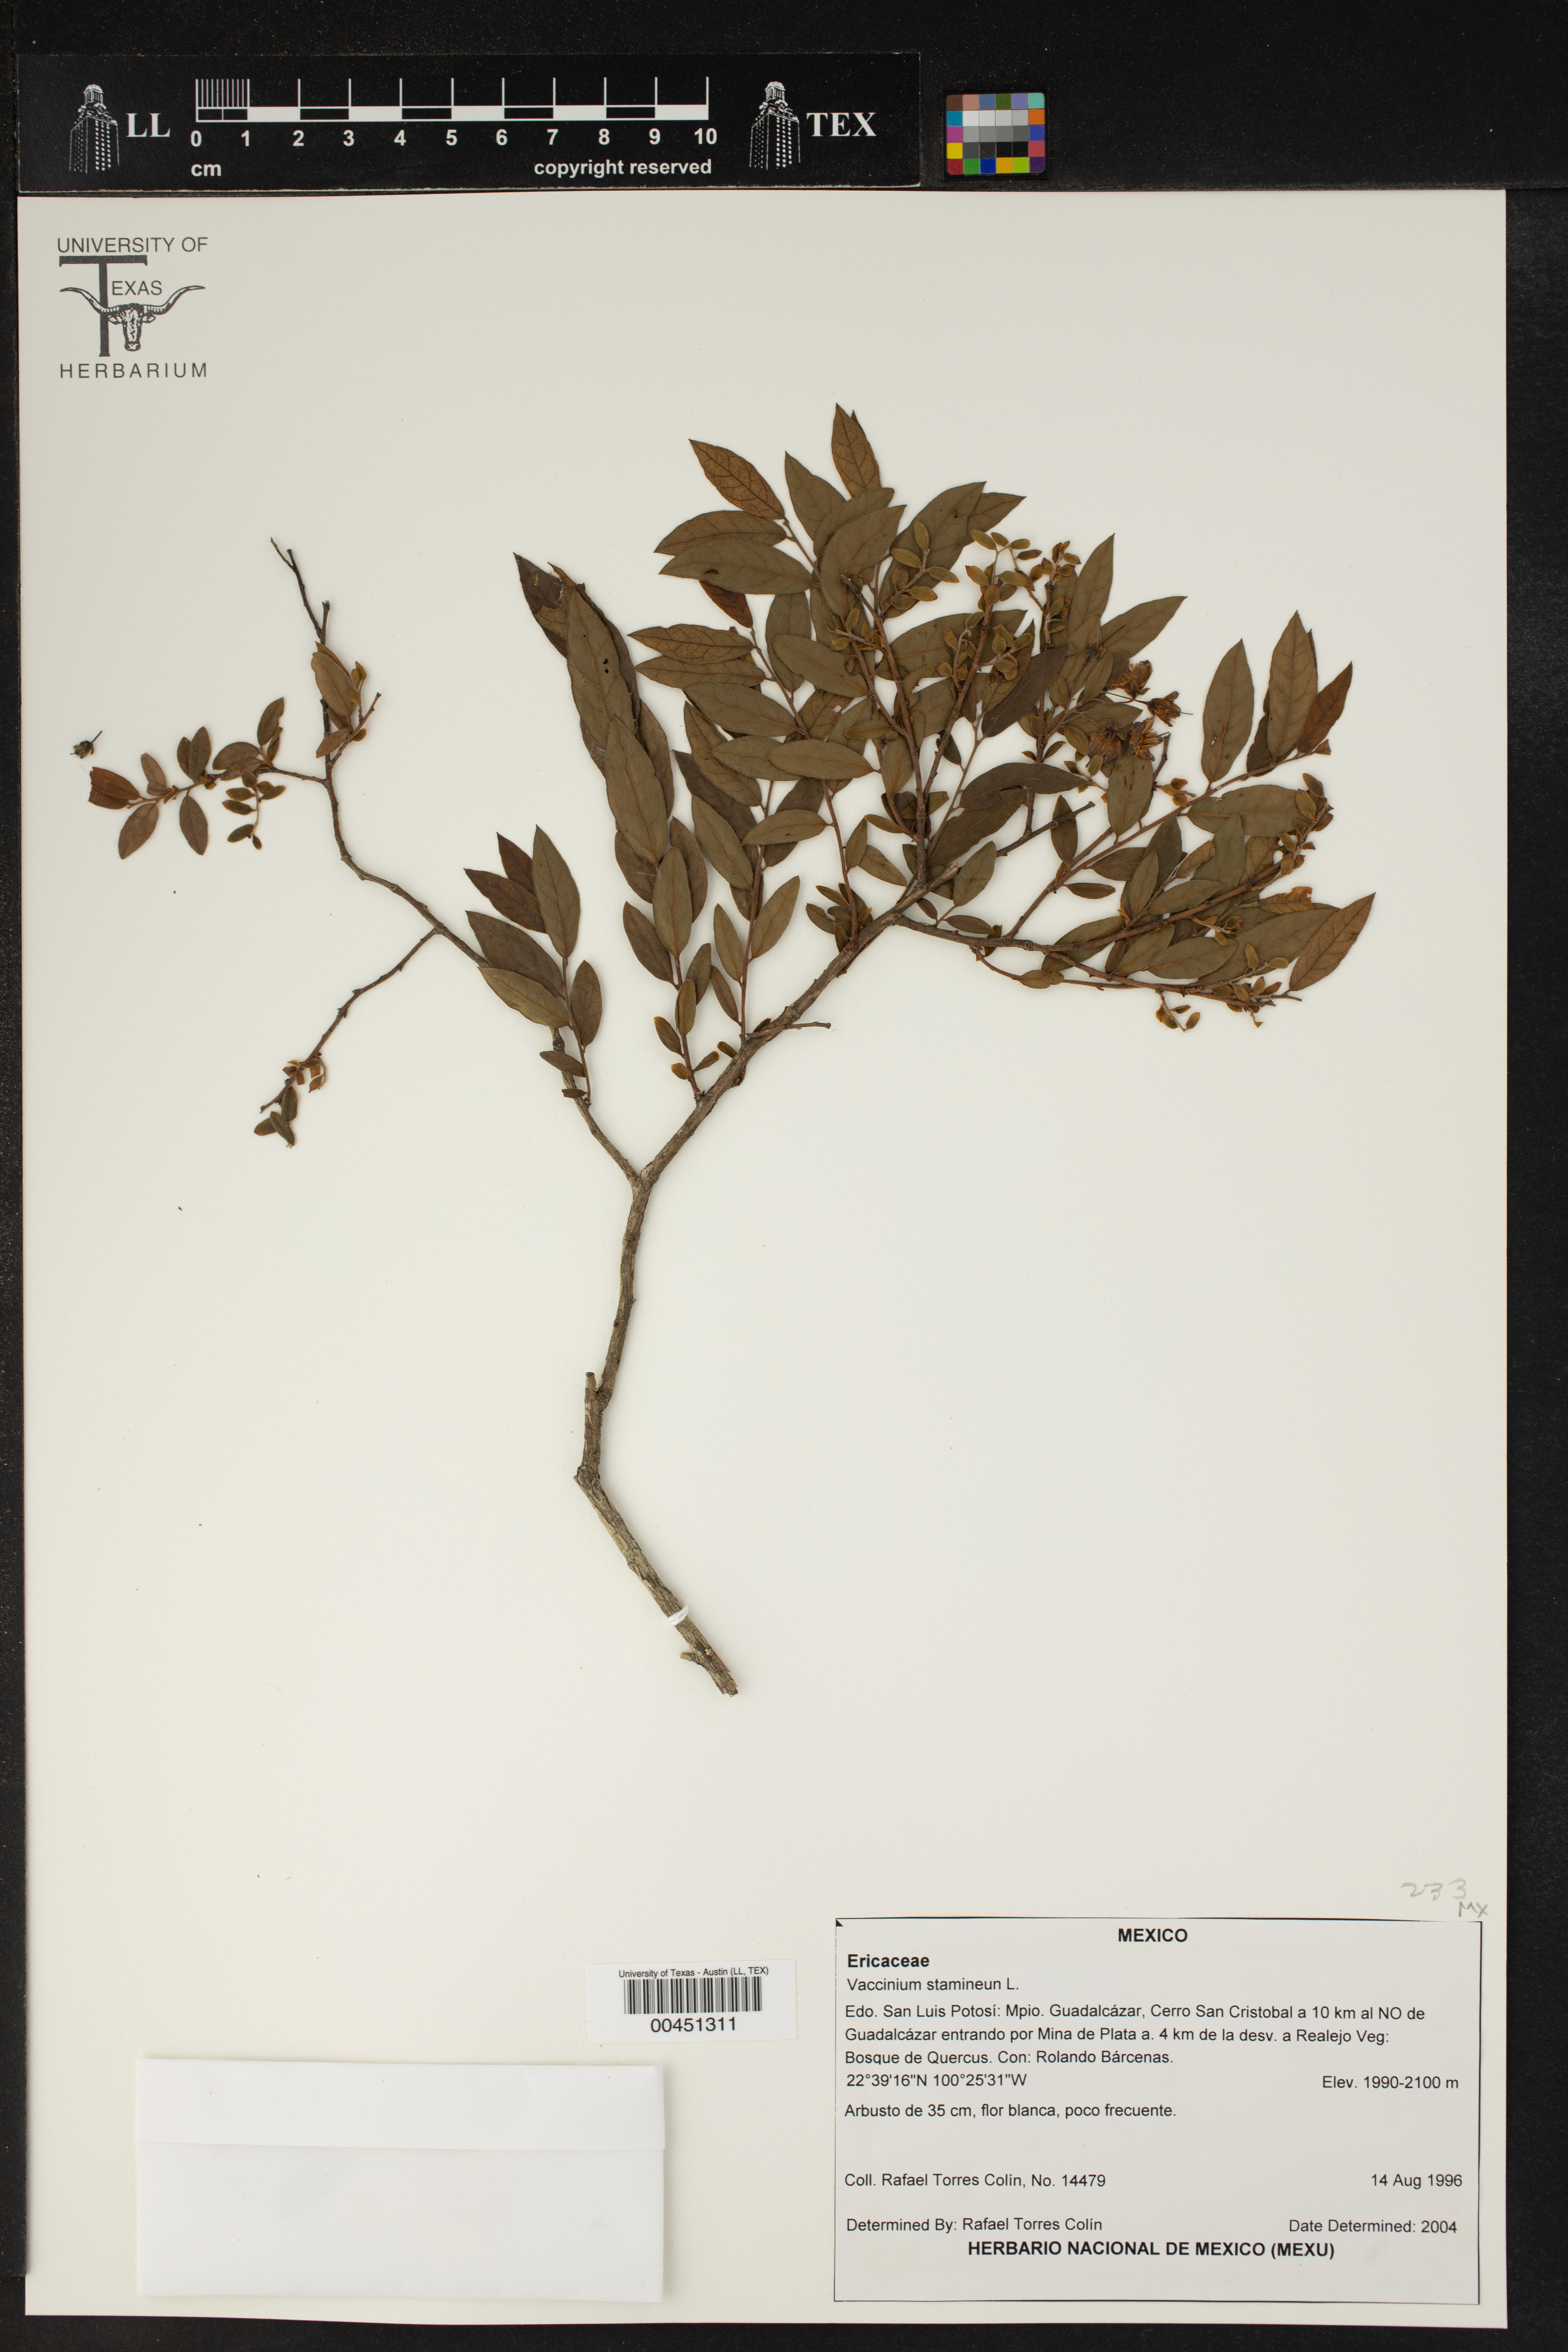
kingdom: Plantae
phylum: Tracheophyta
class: Magnoliopsida
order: Ericales
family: Ericaceae
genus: Vaccinium
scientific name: Vaccinium stamineum
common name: Deerberry
